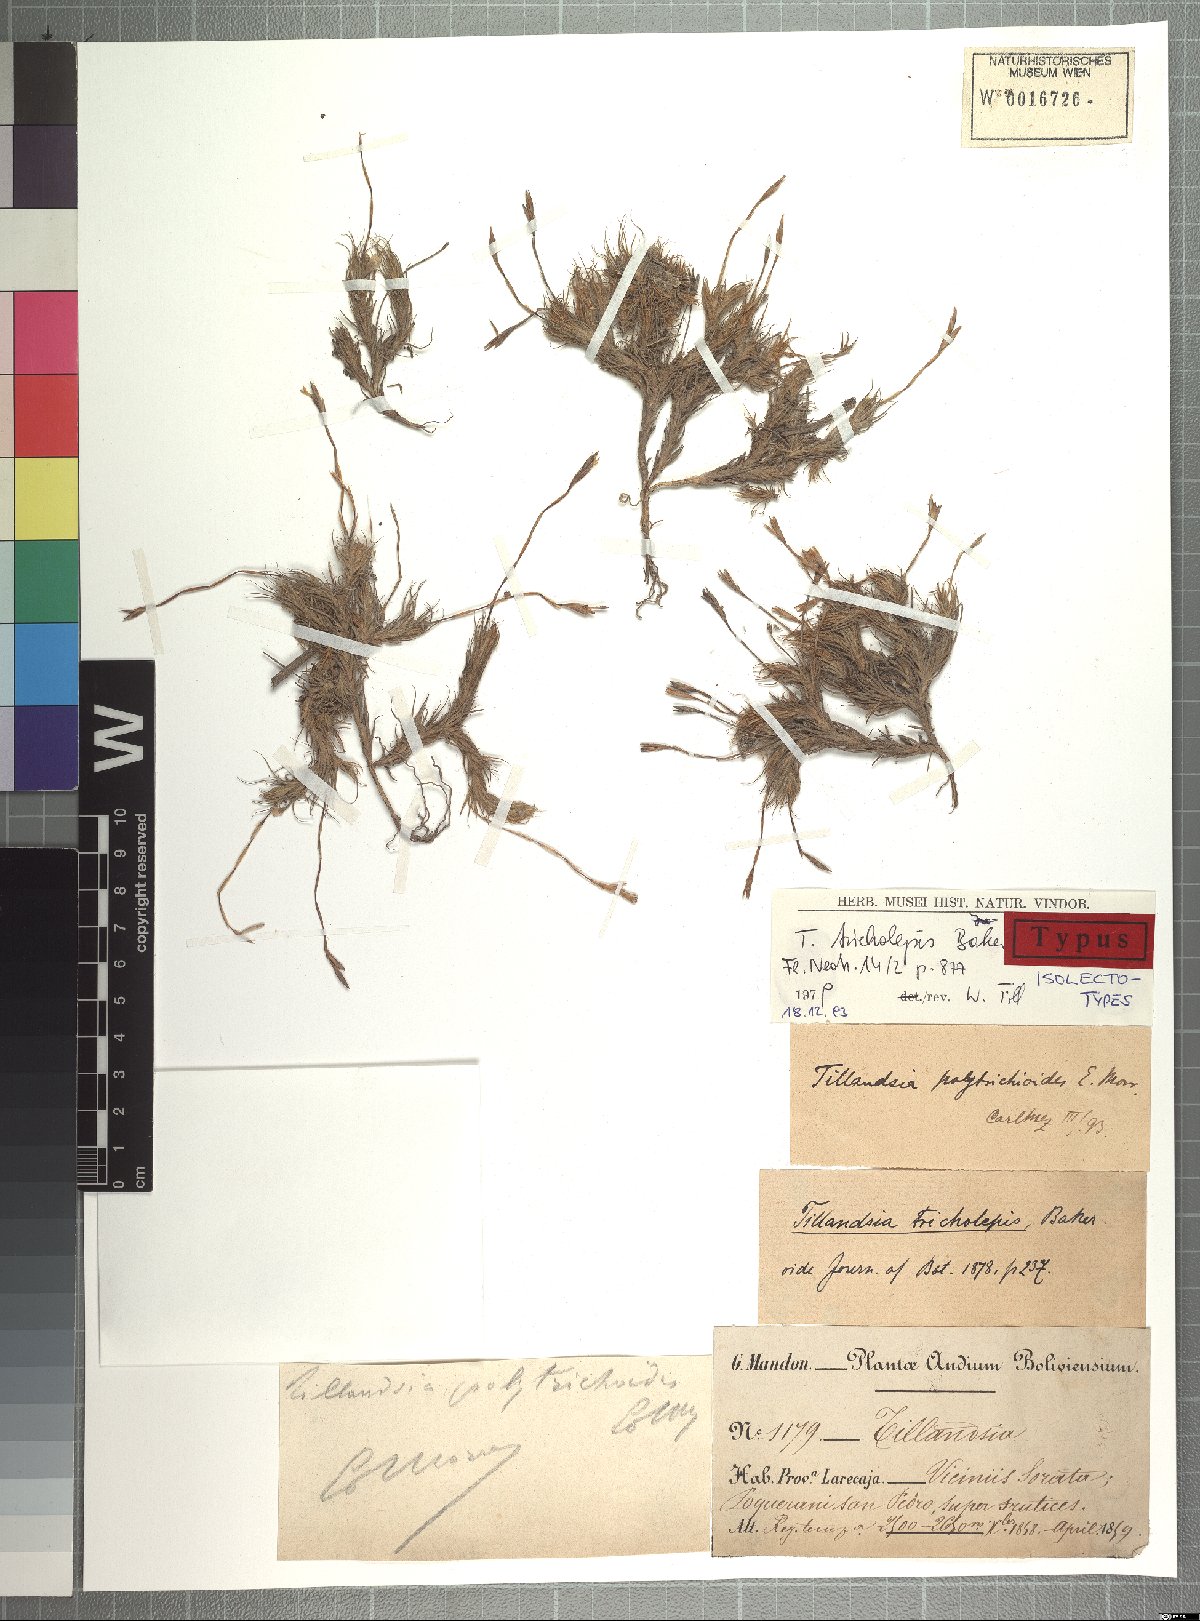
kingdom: Plantae
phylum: Tracheophyta
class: Liliopsida
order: Poales
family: Bromeliaceae
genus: Tillandsia
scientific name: Tillandsia tricholepis
